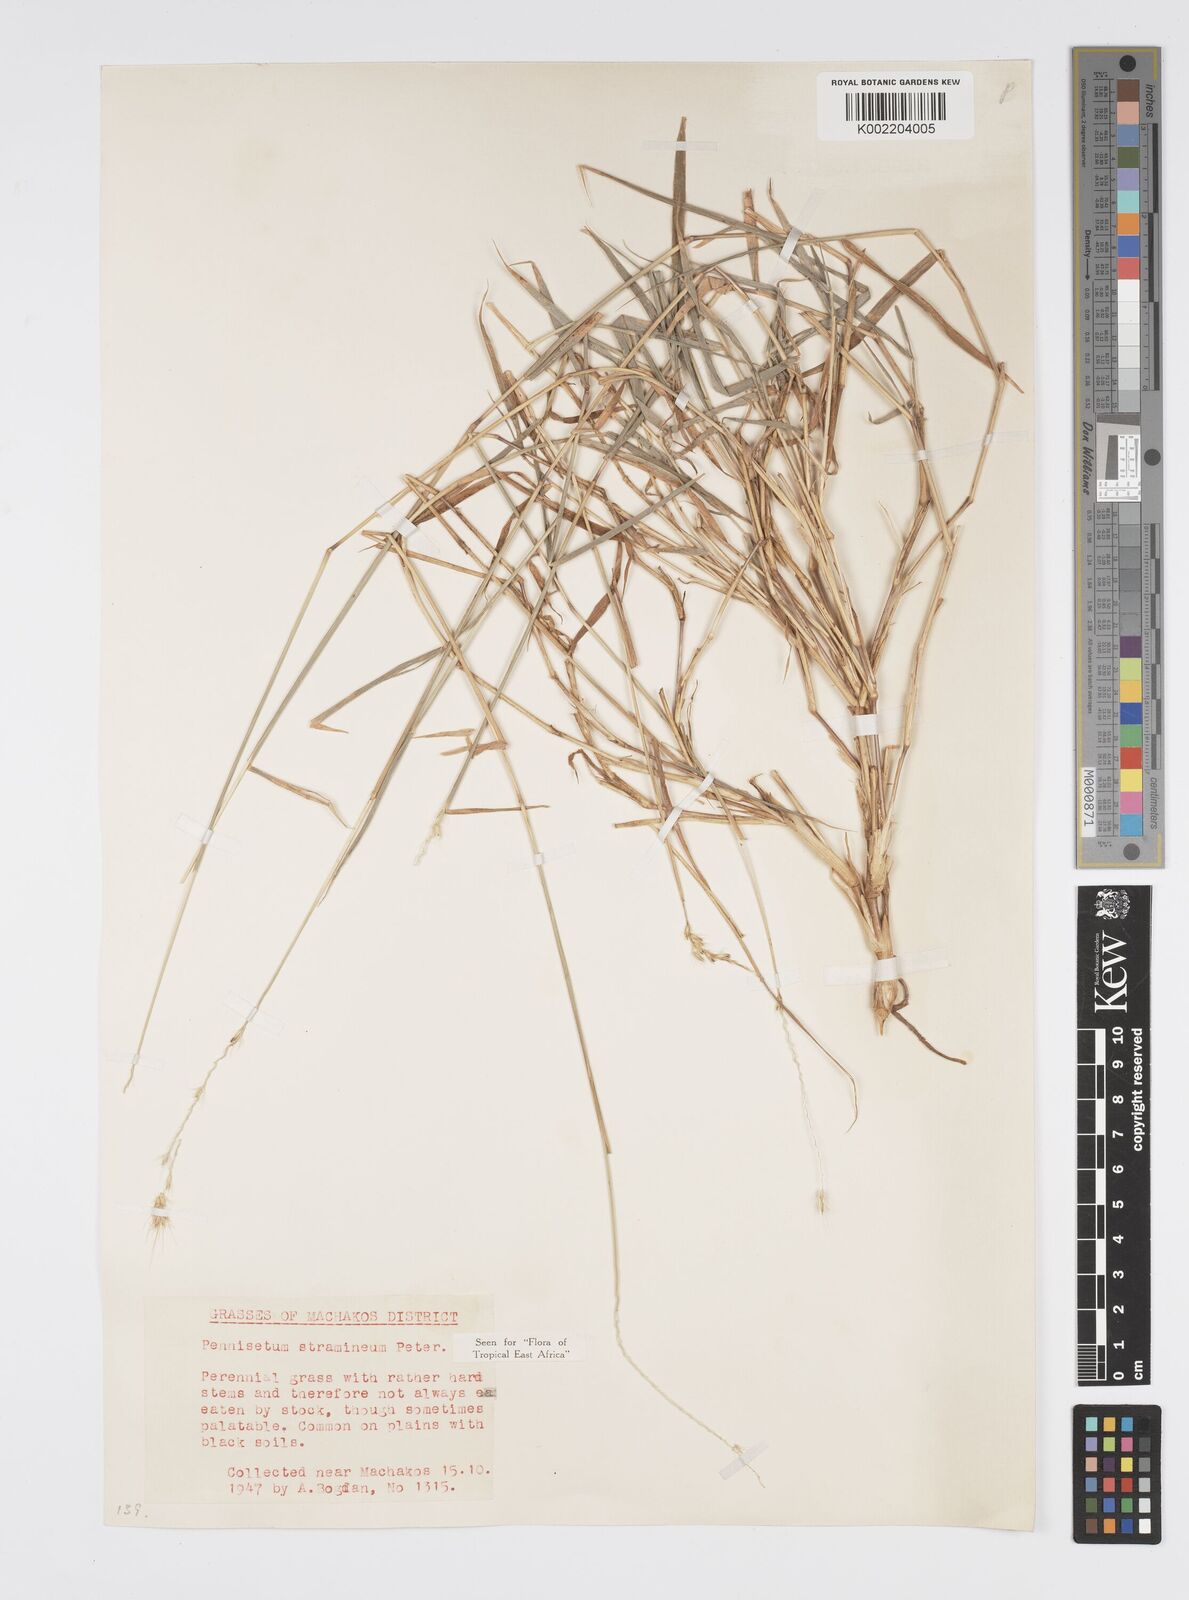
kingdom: Plantae
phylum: Tracheophyta
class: Liliopsida
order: Poales
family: Poaceae
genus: Cenchrus
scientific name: Cenchrus stramineus
